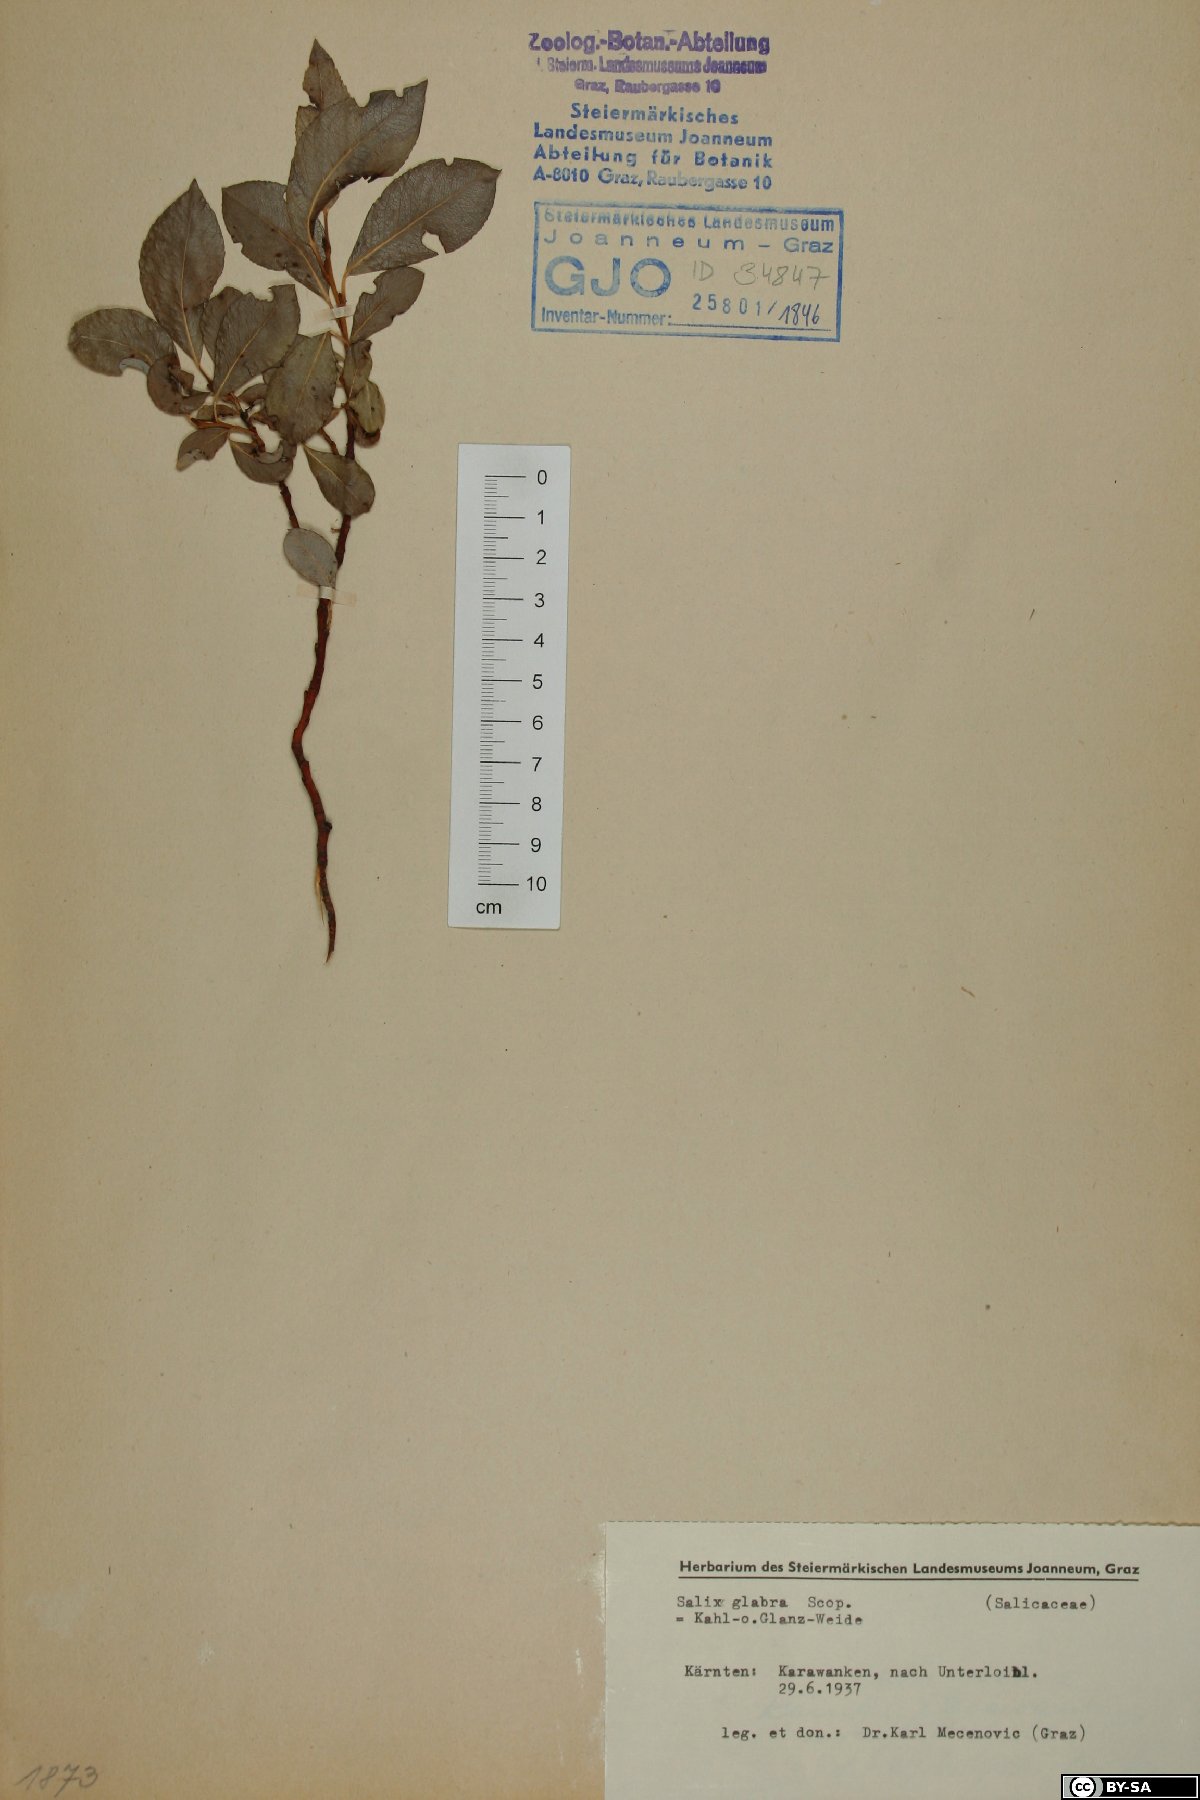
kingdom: Plantae
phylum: Tracheophyta
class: Magnoliopsida
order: Malpighiales
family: Salicaceae
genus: Salix
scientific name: Salix glabra
